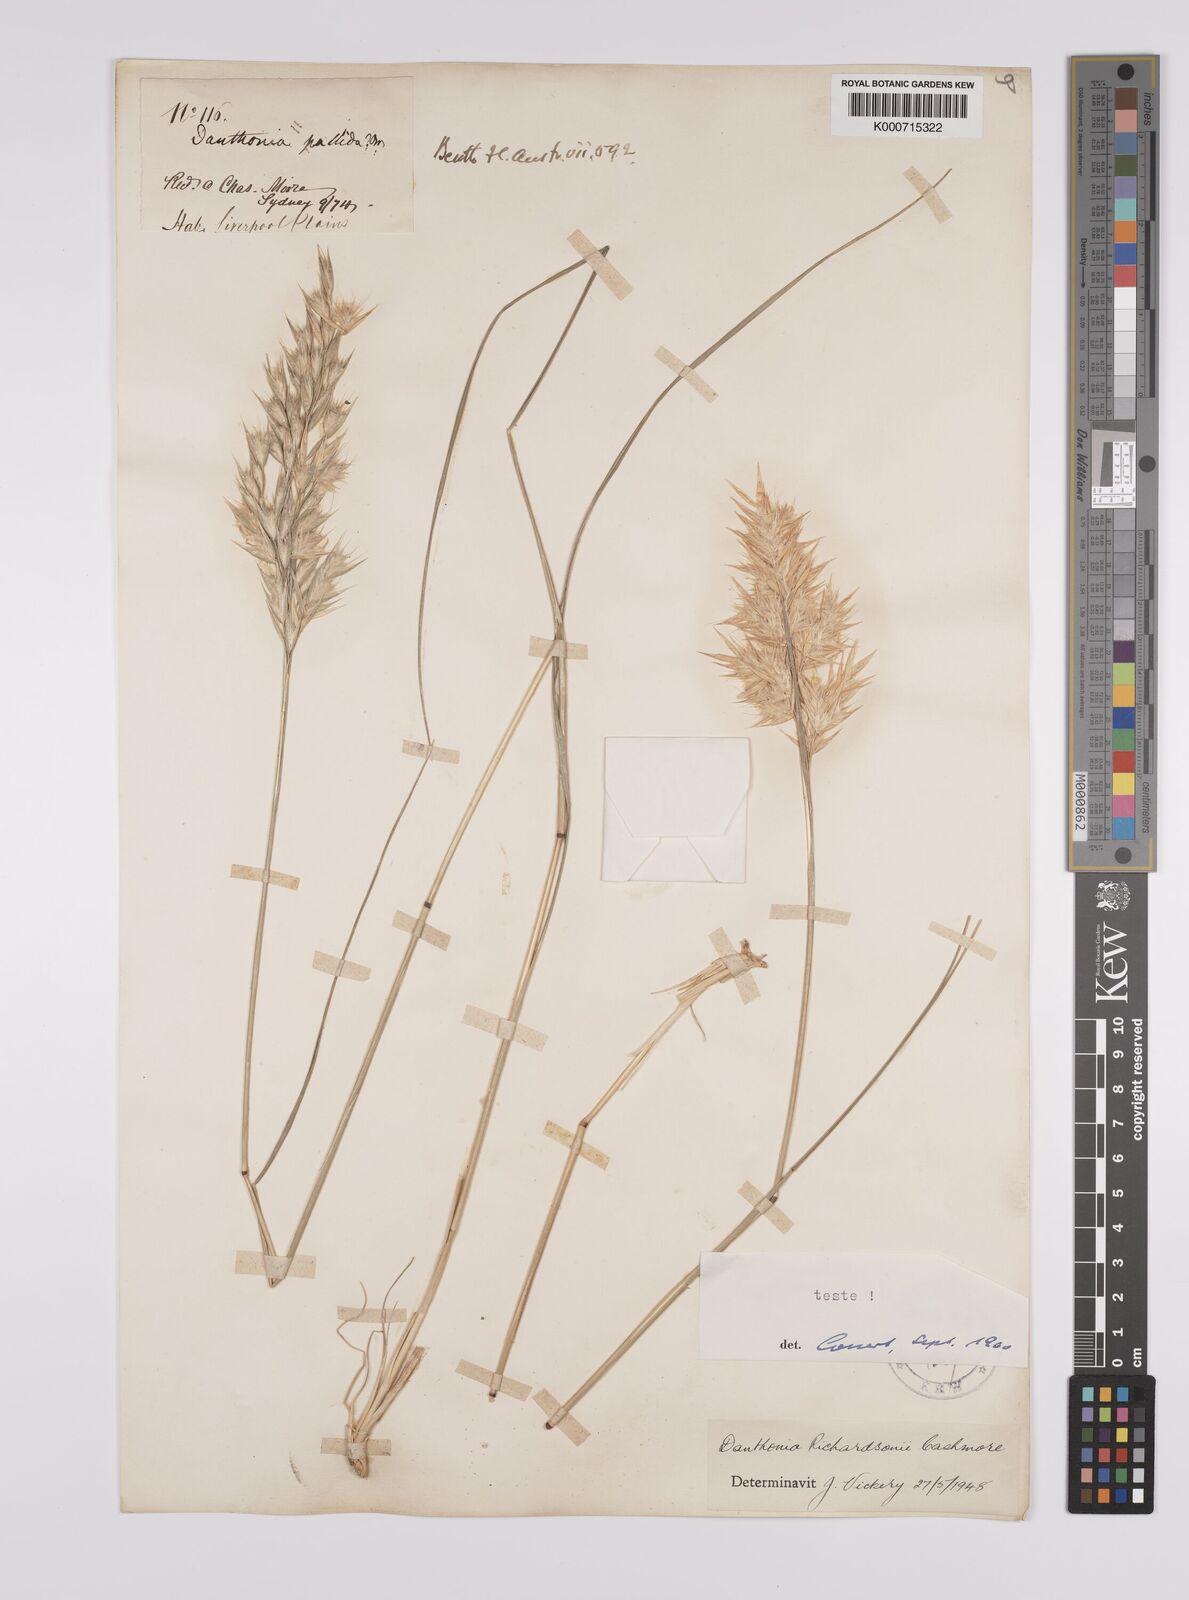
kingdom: Plantae
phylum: Tracheophyta
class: Liliopsida
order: Poales
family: Poaceae
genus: Rytidosperma
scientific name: Rytidosperma richardsonii
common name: Straw wallaby-grass
